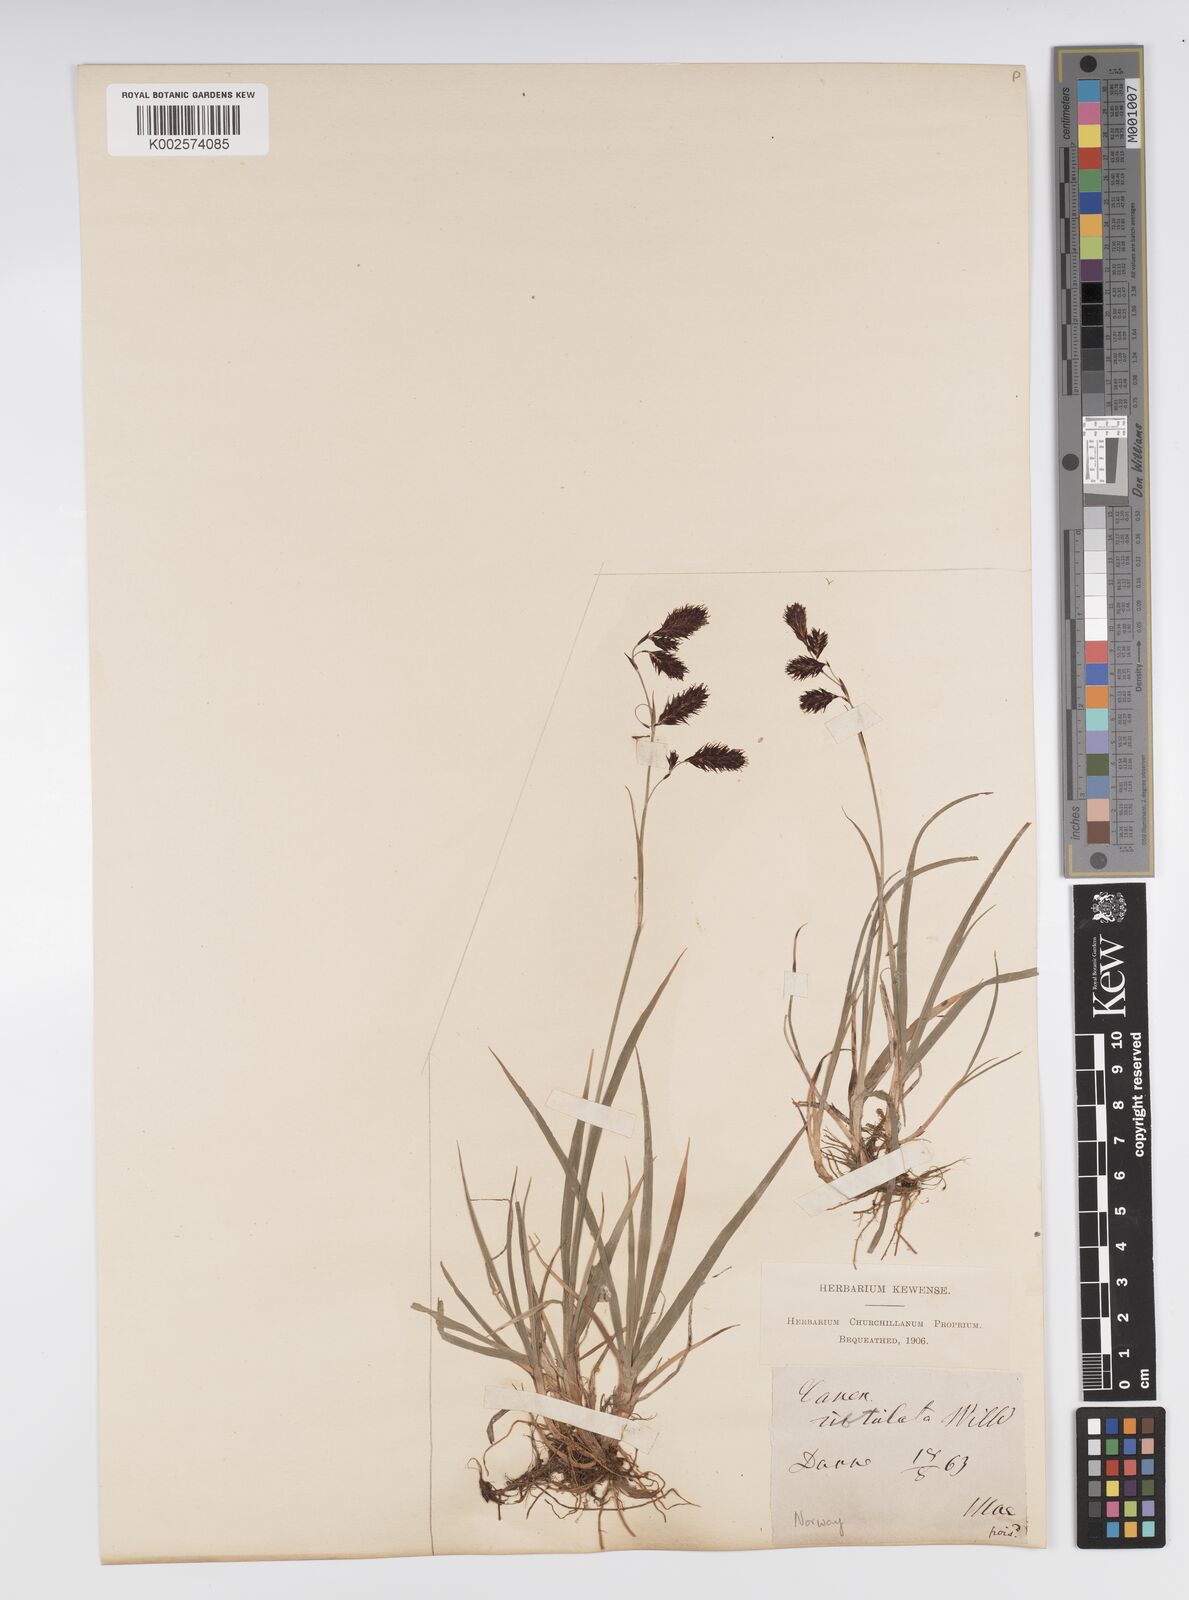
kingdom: Plantae
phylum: Tracheophyta
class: Liliopsida
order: Poales
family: Cyperaceae
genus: Carex
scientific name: Carex atrofusca
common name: Scorched alpine-sedge
